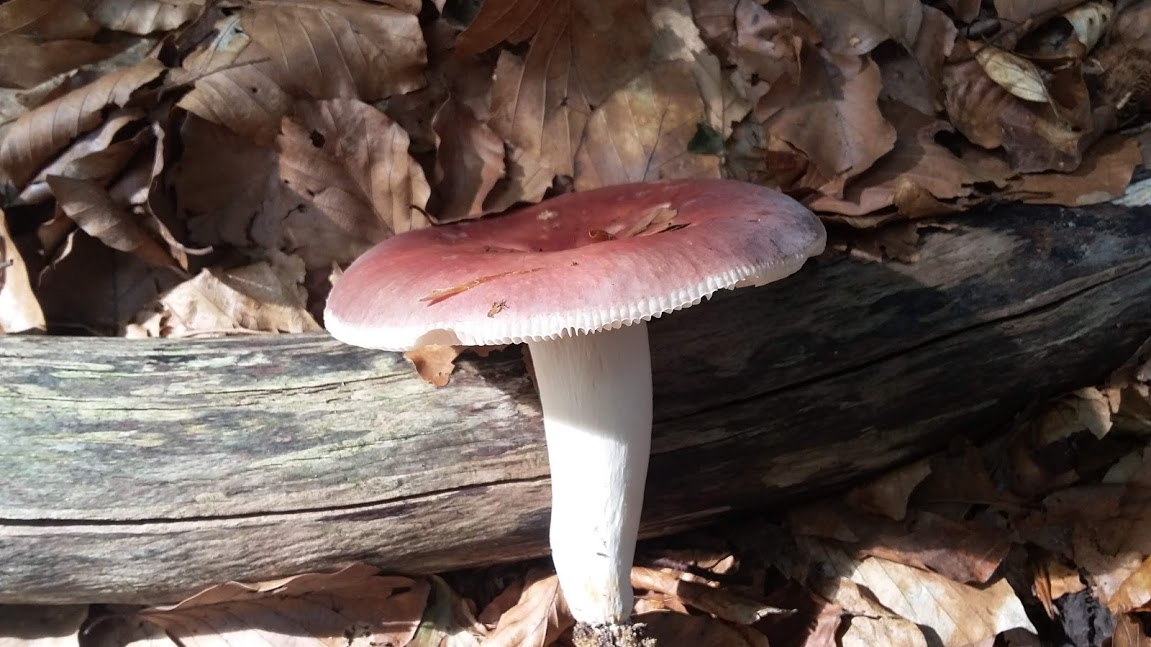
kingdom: Fungi
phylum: Basidiomycota
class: Agaricomycetes
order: Russulales
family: Russulaceae
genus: Russula
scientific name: Russula vesca
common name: spiselig skørhat
